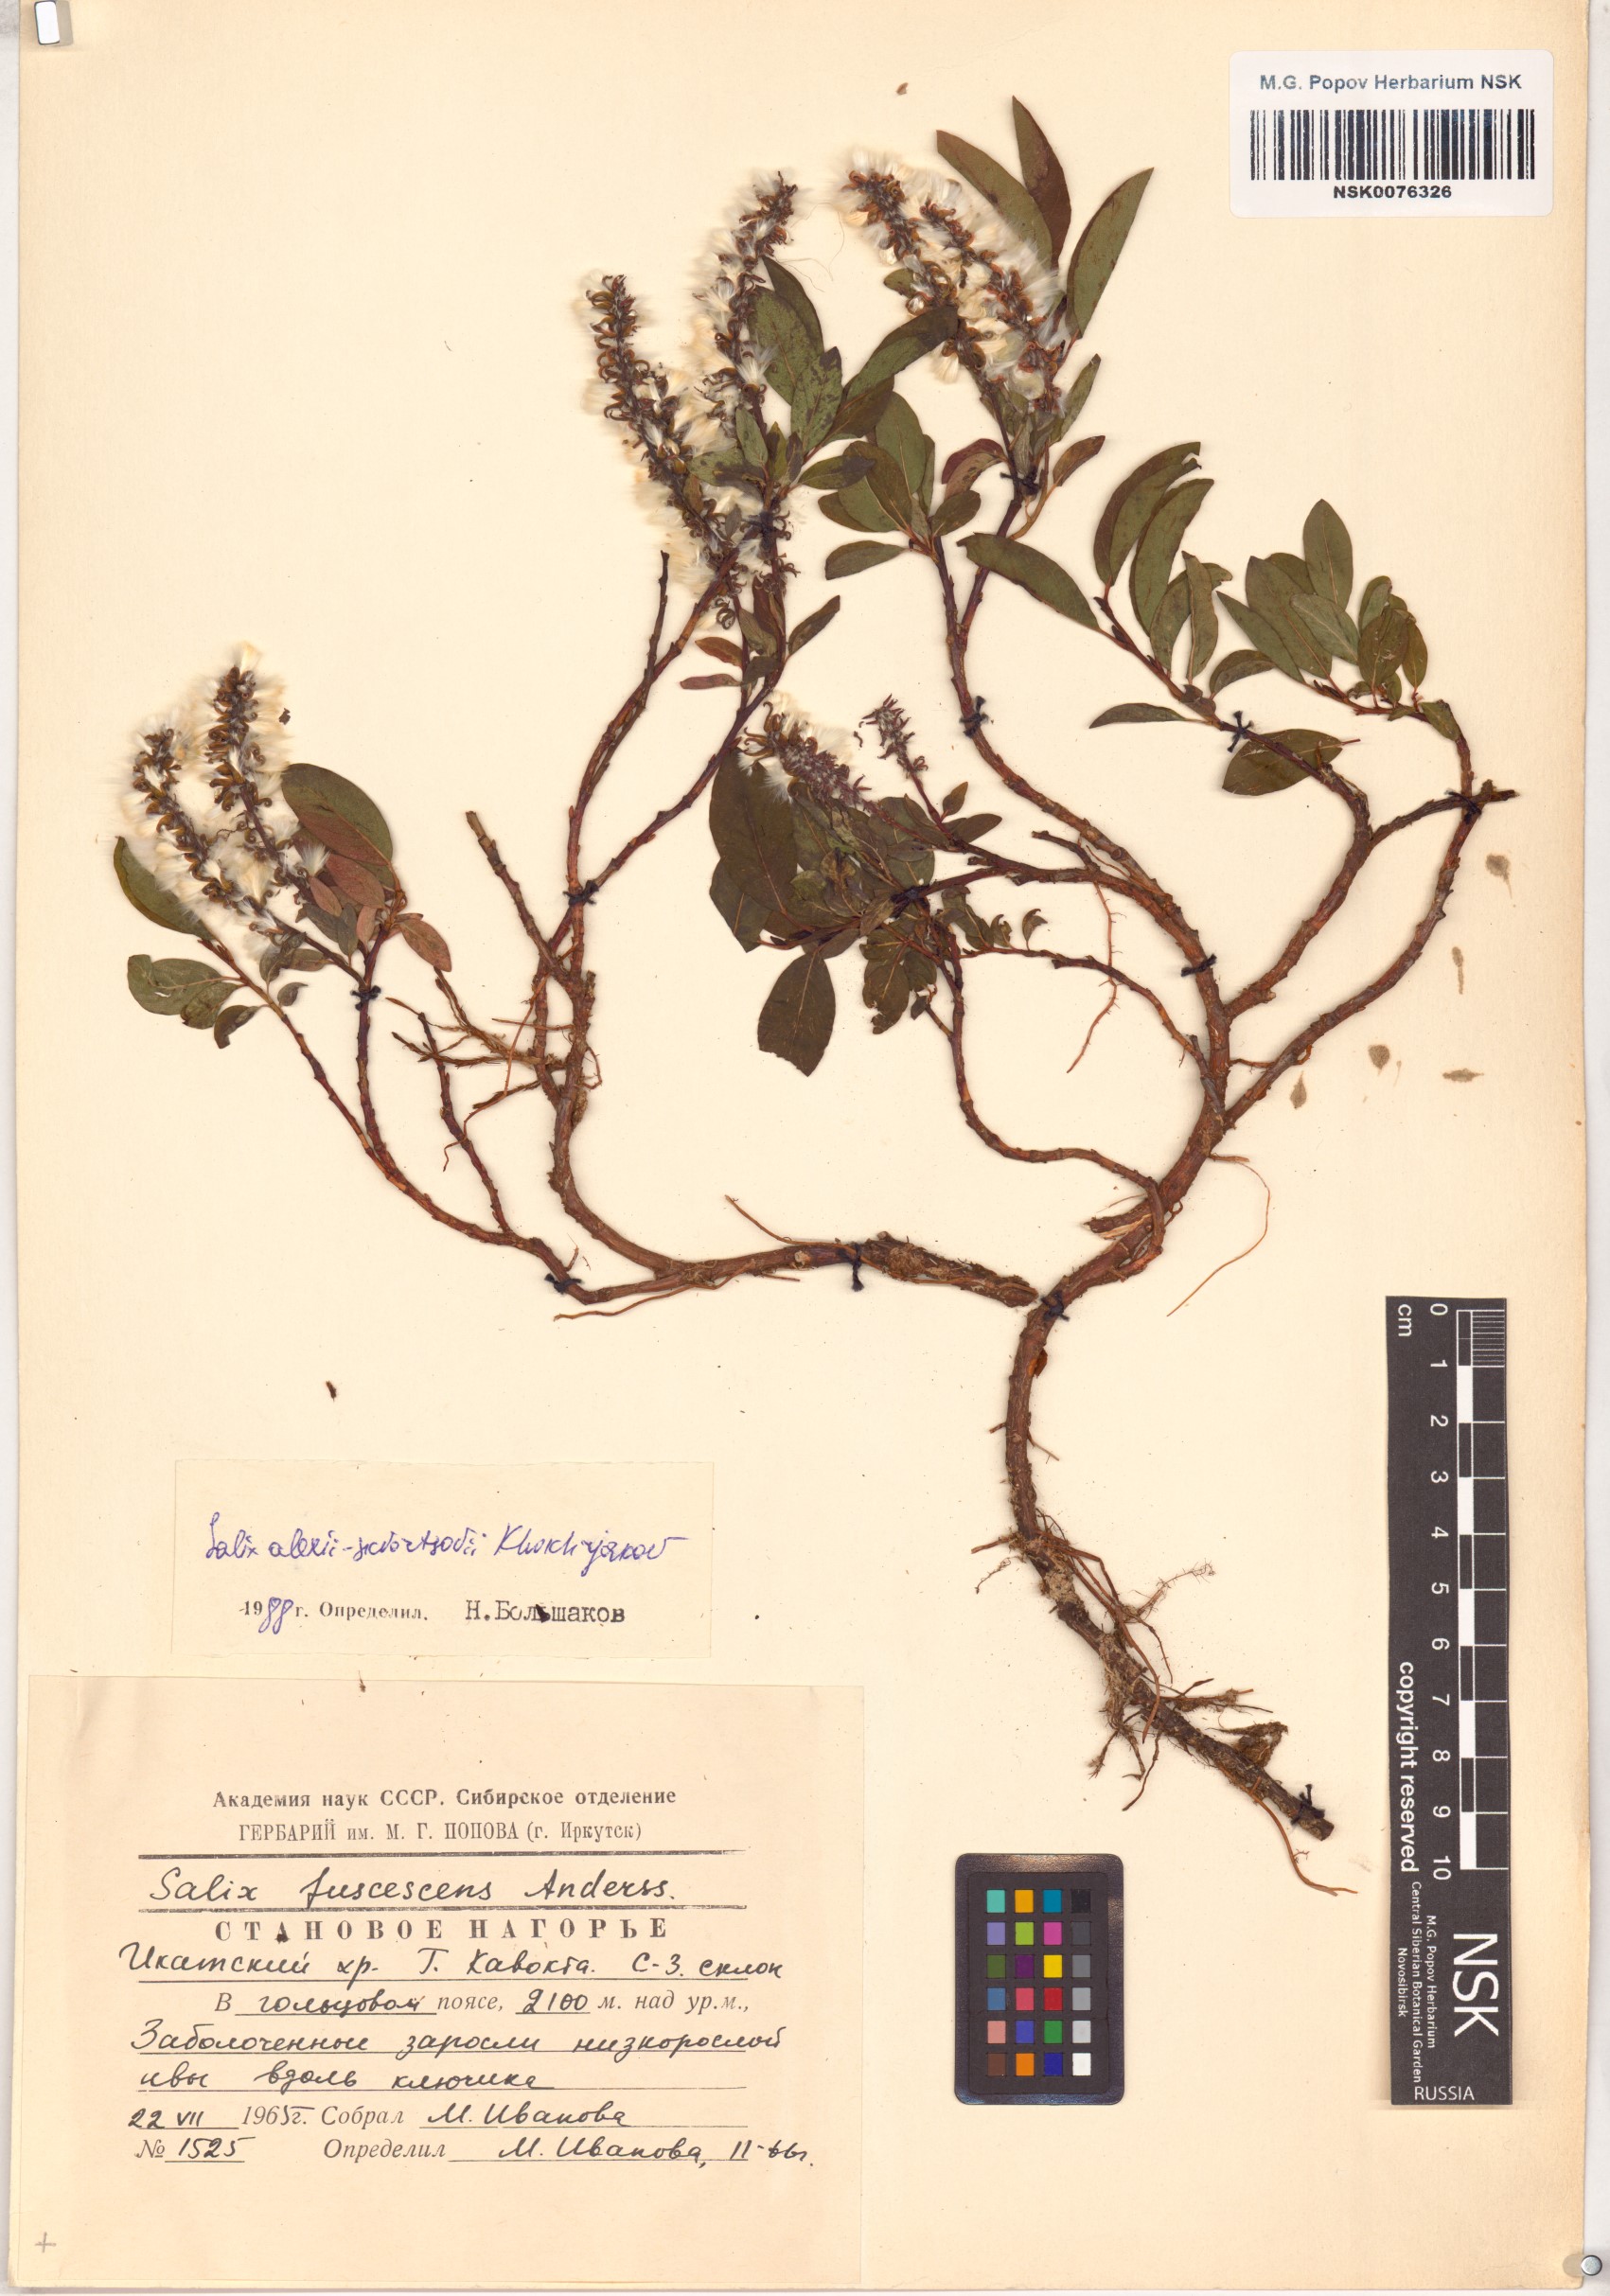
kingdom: Plantae
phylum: Tracheophyta
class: Magnoliopsida
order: Malpighiales
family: Salicaceae
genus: Salix
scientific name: Salix alexii-skvortzovii
